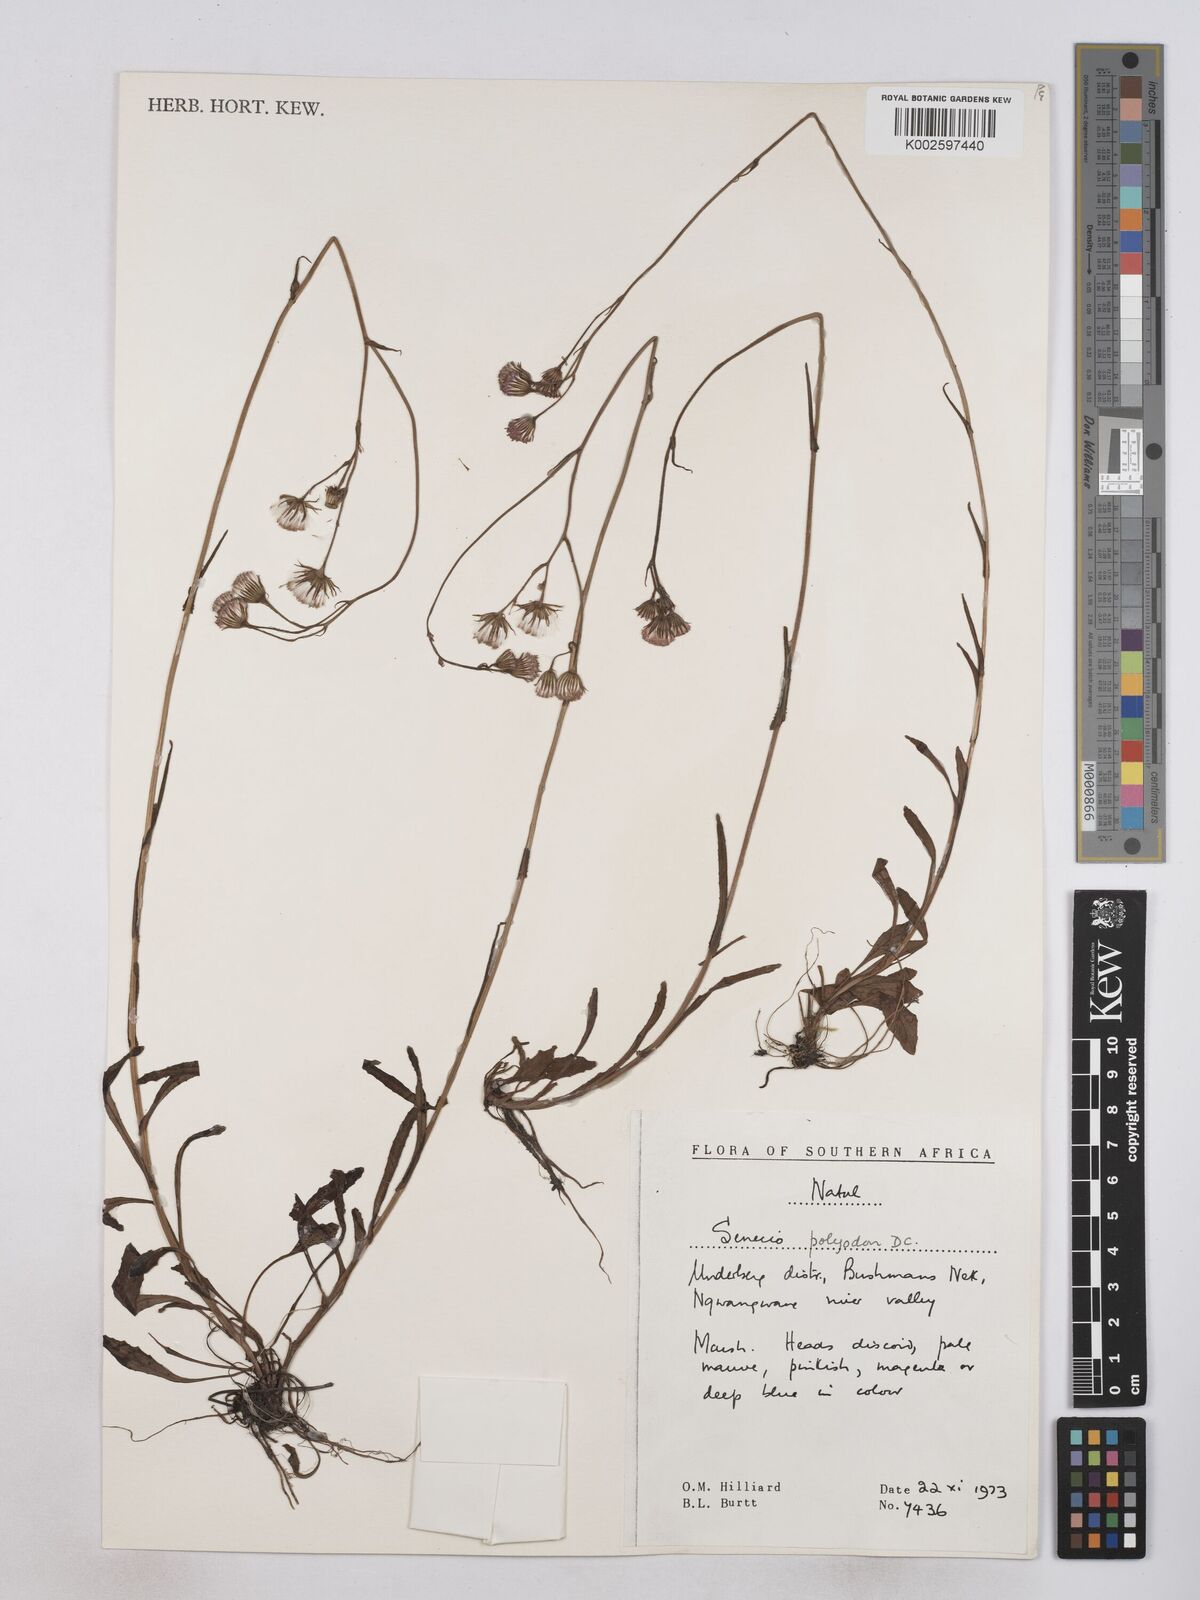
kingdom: Plantae
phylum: Tracheophyta
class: Magnoliopsida
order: Asterales
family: Asteraceae
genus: Senecio
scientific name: Senecio polyodon
